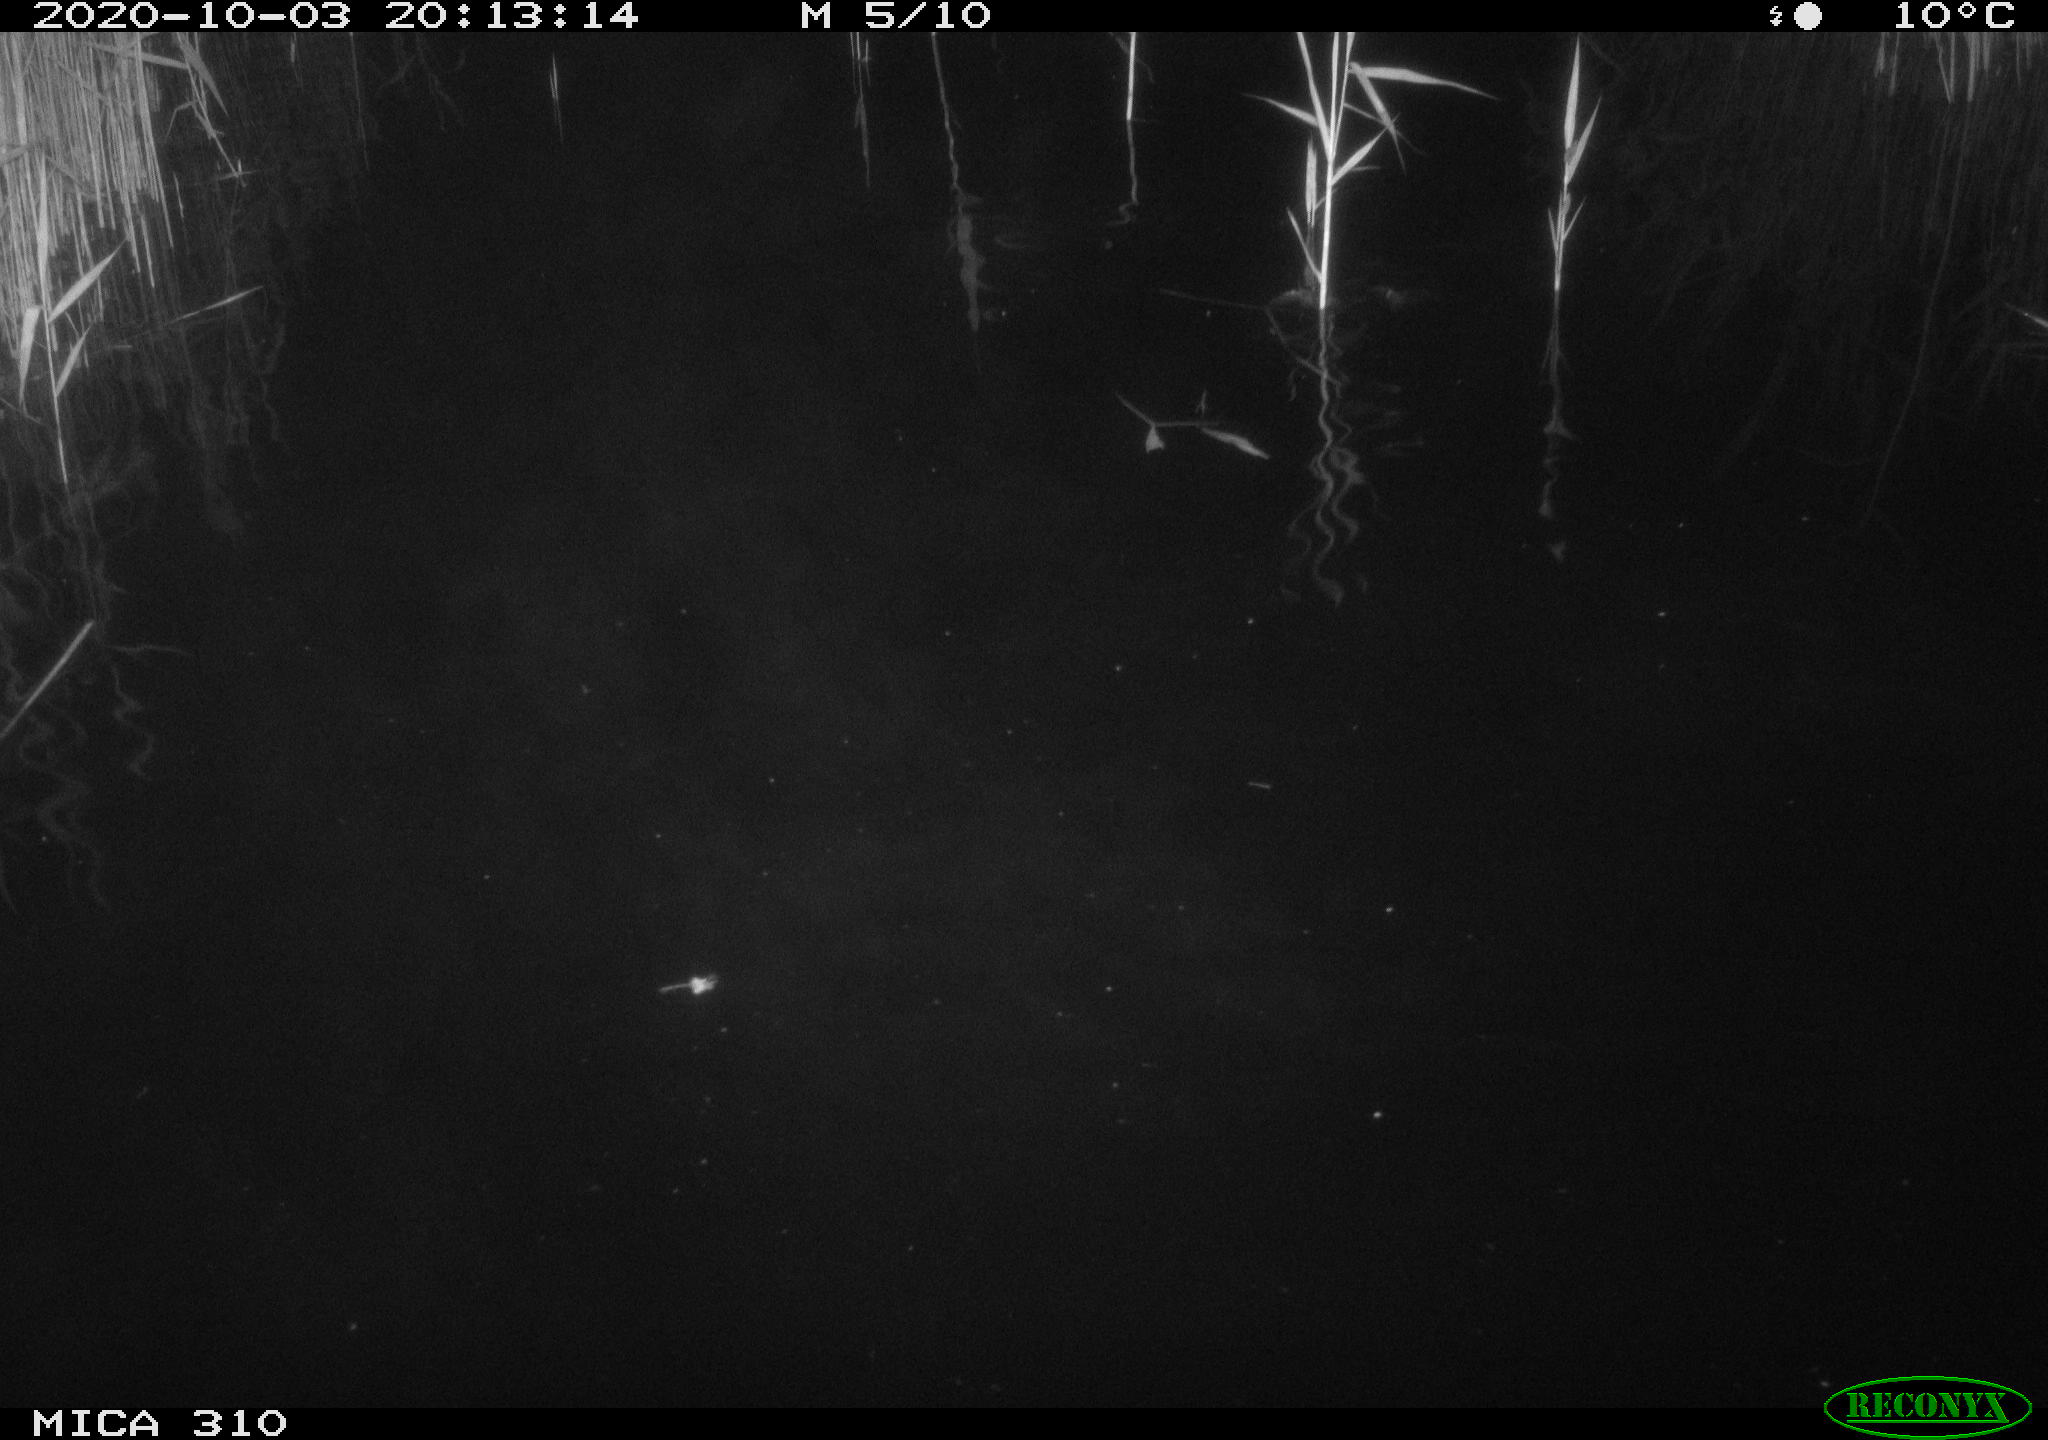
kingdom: Animalia
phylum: Chordata
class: Mammalia
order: Rodentia
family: Muridae
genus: Rattus
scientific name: Rattus norvegicus
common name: Brown rat
